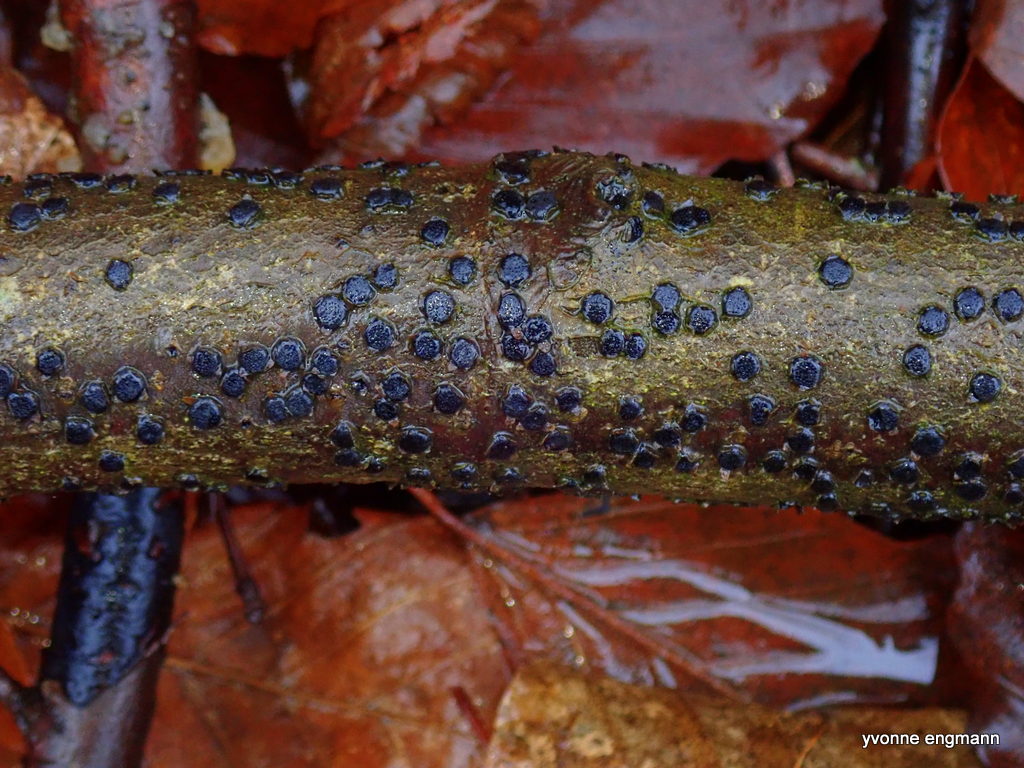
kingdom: Fungi
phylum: Ascomycota
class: Sordariomycetes
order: Xylariales
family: Diatrypaceae
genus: Diatrype
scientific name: Diatrype disciformis
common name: kant-kulskorpe
